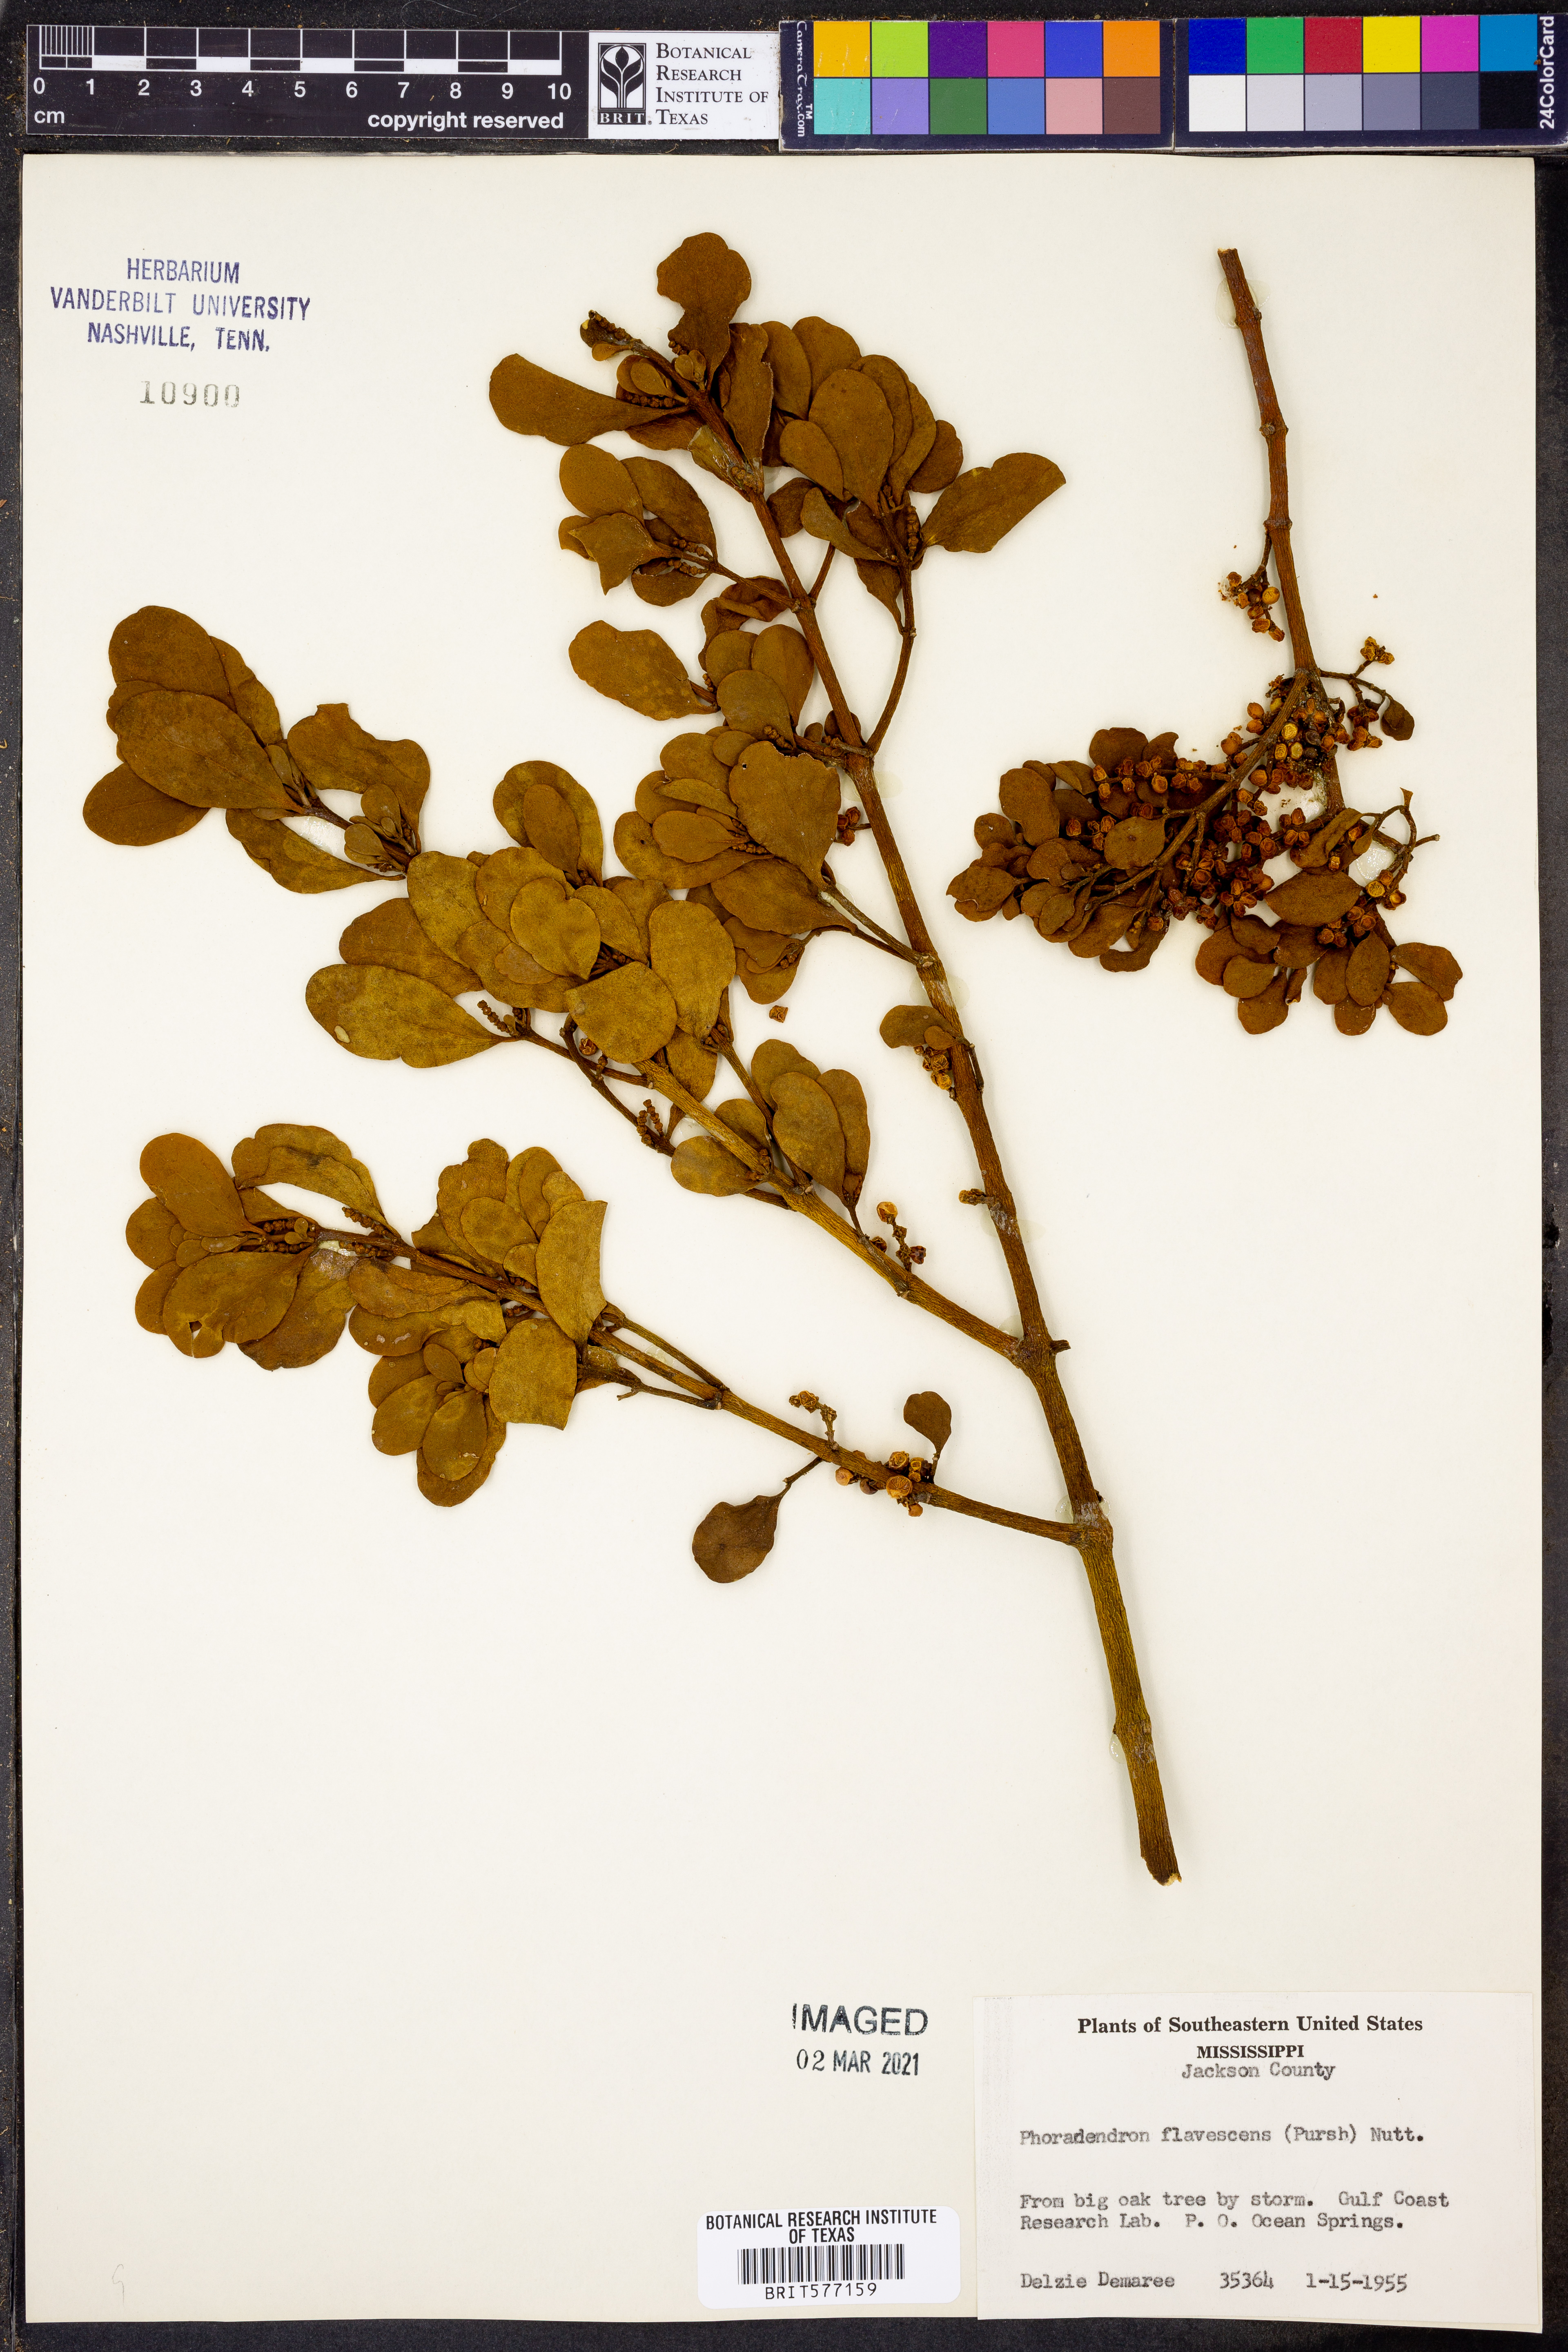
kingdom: Plantae
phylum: Tracheophyta
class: Magnoliopsida
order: Santalales
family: Viscaceae
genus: Phoradendron
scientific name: Phoradendron leucarpum
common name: Pacific mistletoe
